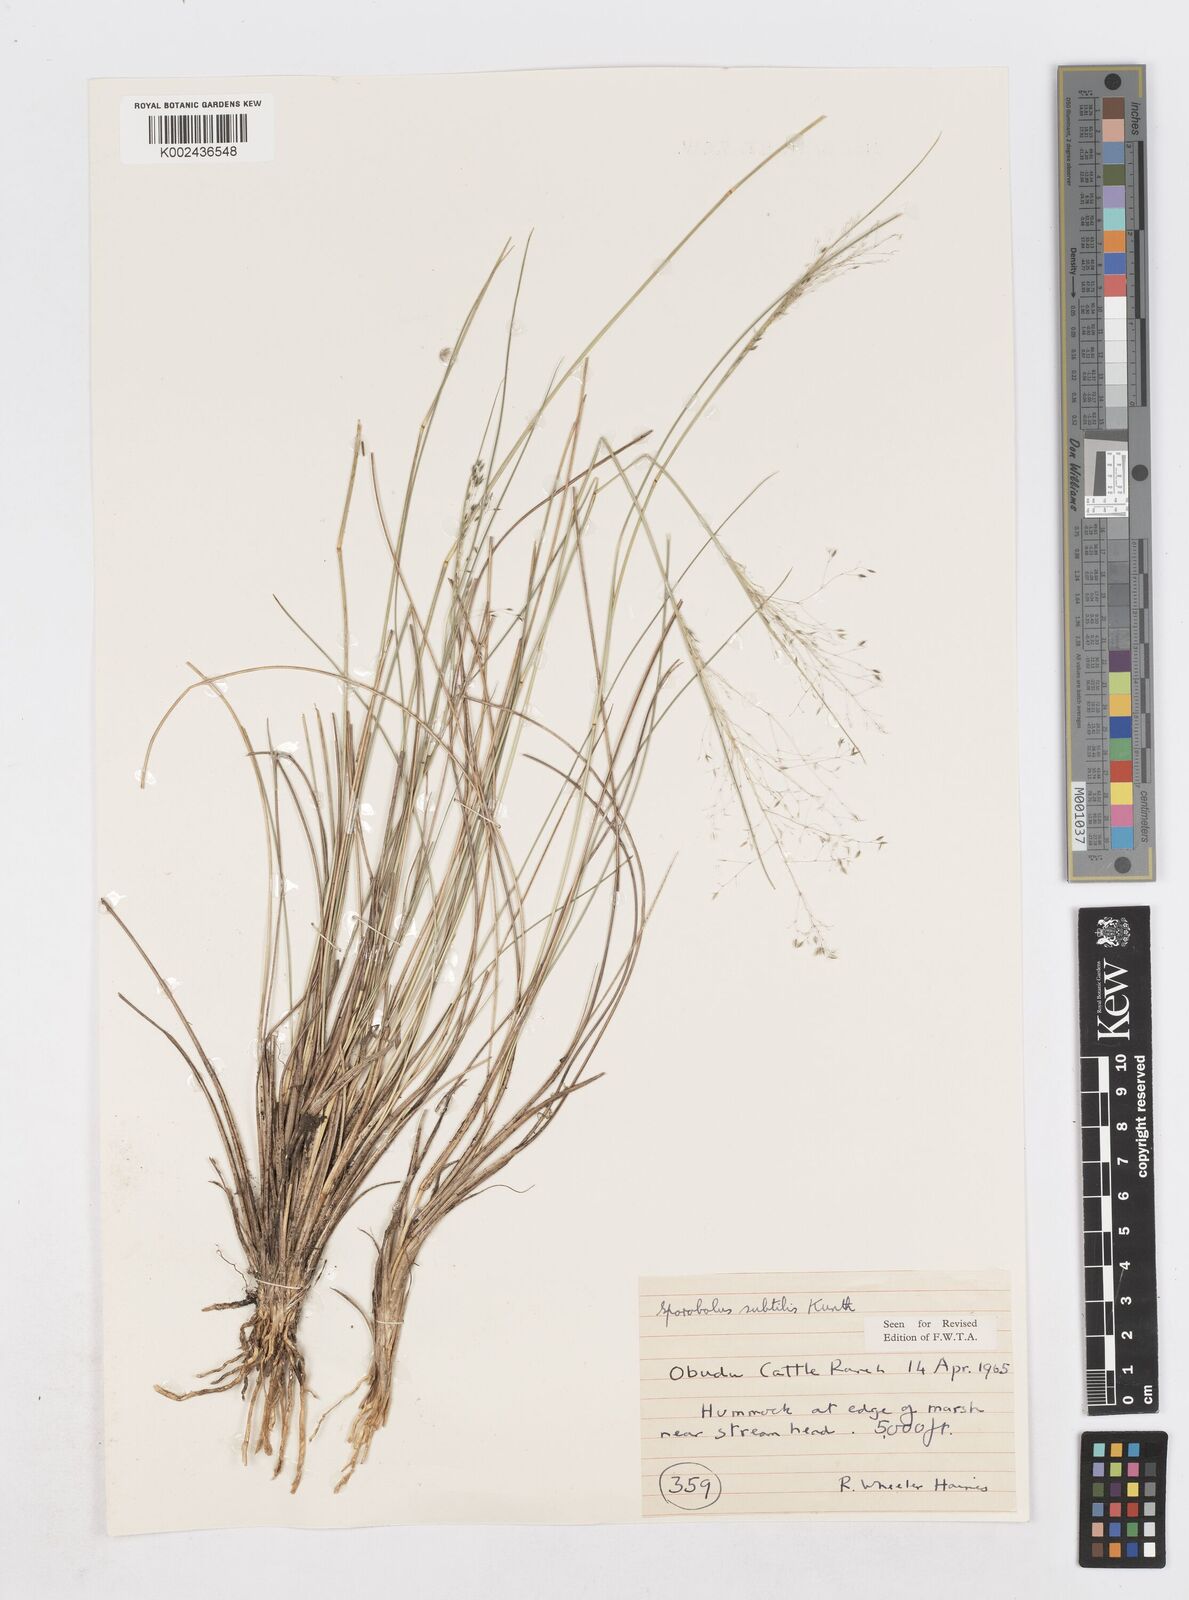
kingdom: Plantae
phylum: Tracheophyta
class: Liliopsida
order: Poales
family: Poaceae
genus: Sporobolus
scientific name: Sporobolus subtilis
